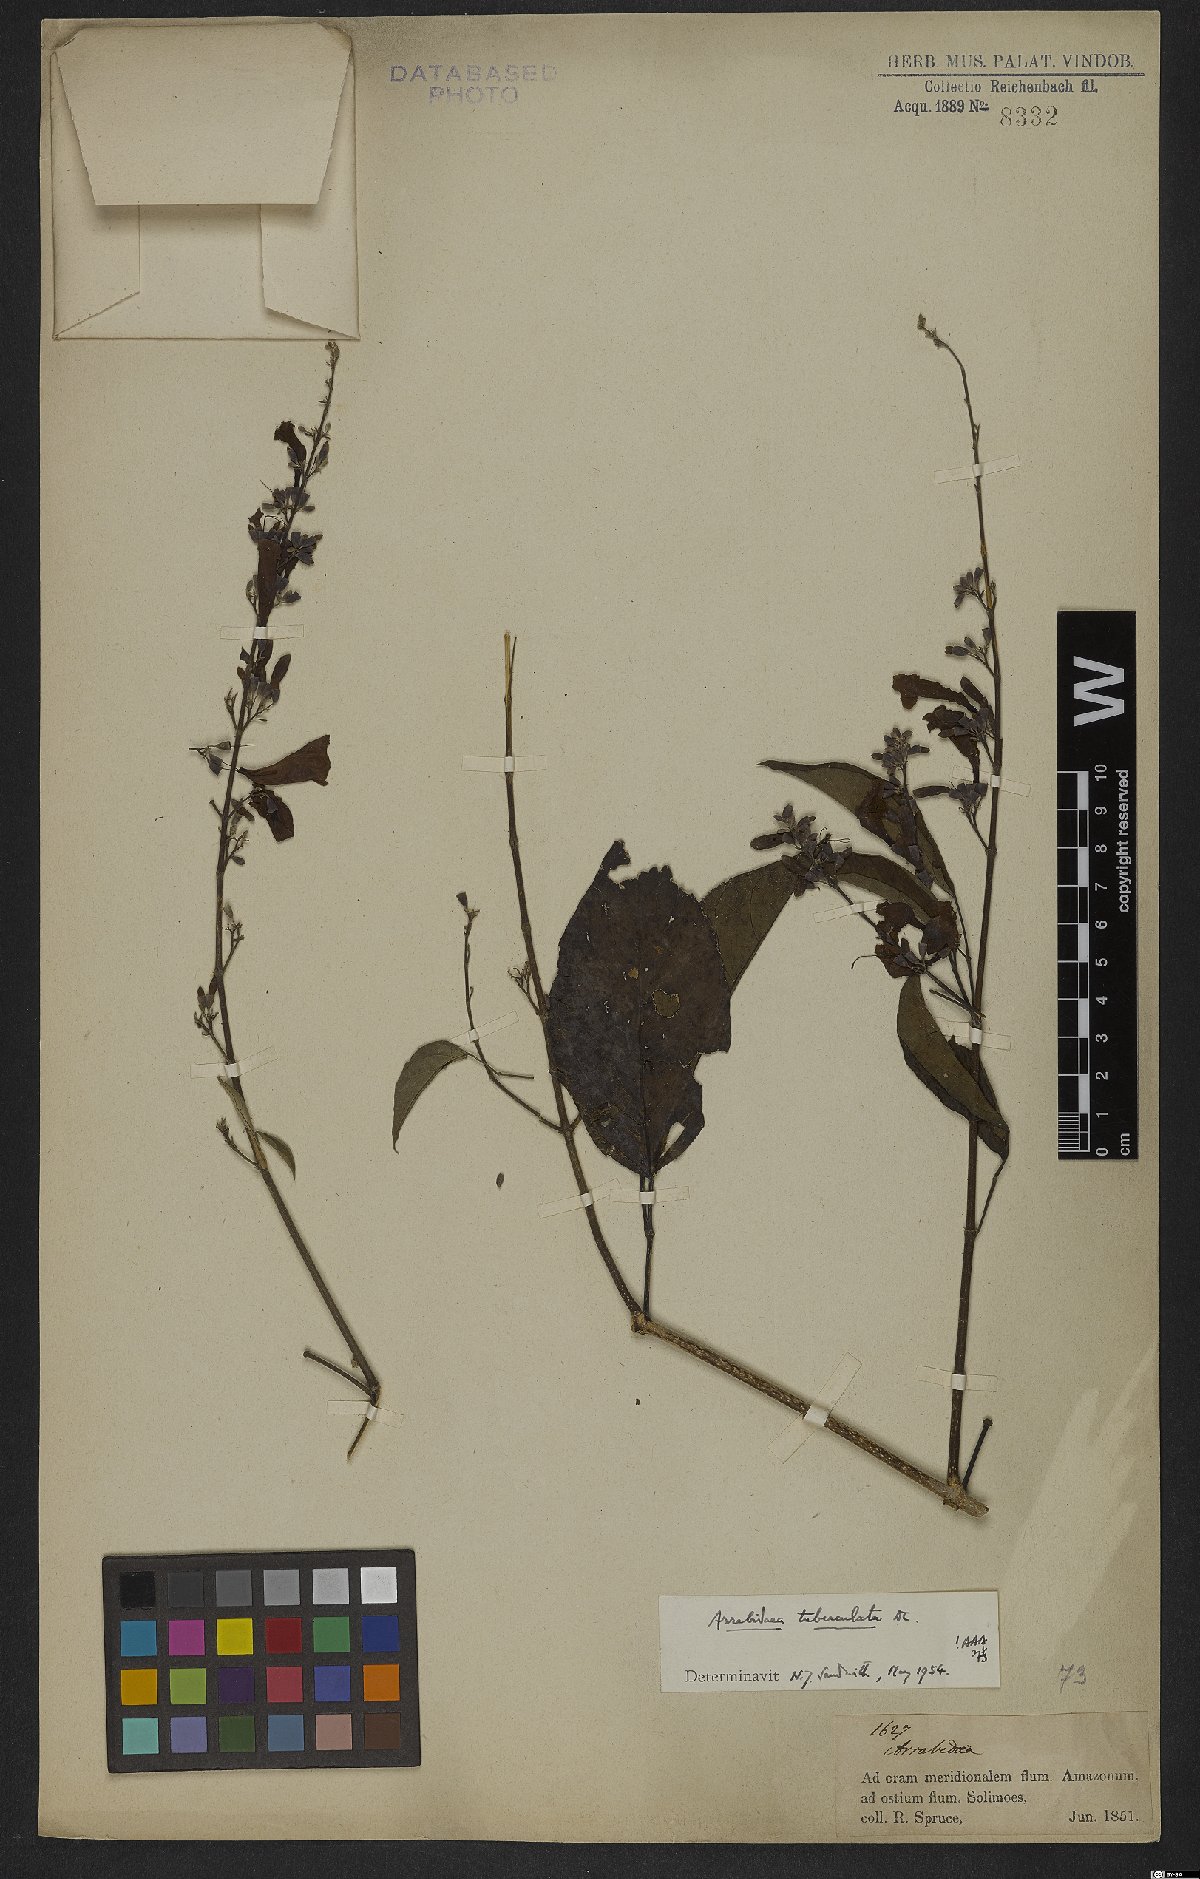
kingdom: Plantae
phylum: Tracheophyta
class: Magnoliopsida
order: Lamiales
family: Bignoniaceae
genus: Fridericia
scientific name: Fridericia tuberculata
